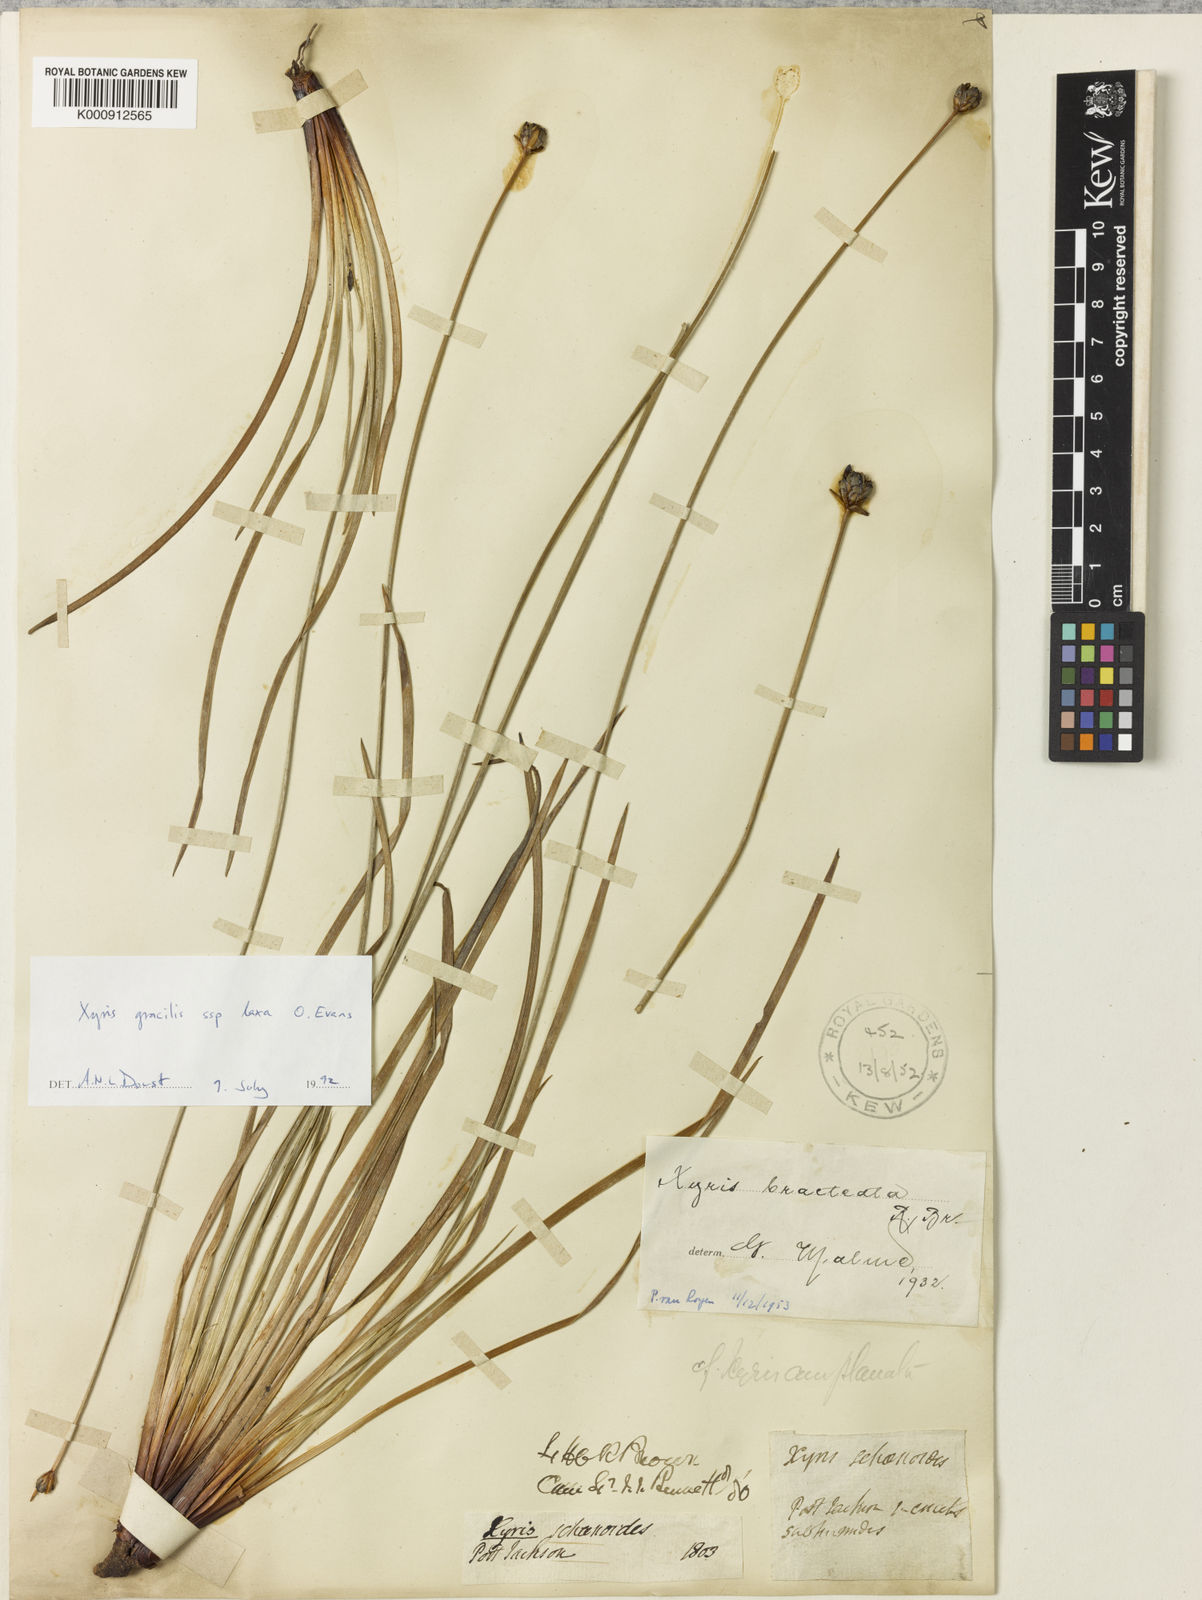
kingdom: Plantae
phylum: Tracheophyta
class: Liliopsida
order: Poales
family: Xyridaceae
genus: Xyris
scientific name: Xyris bracteata
